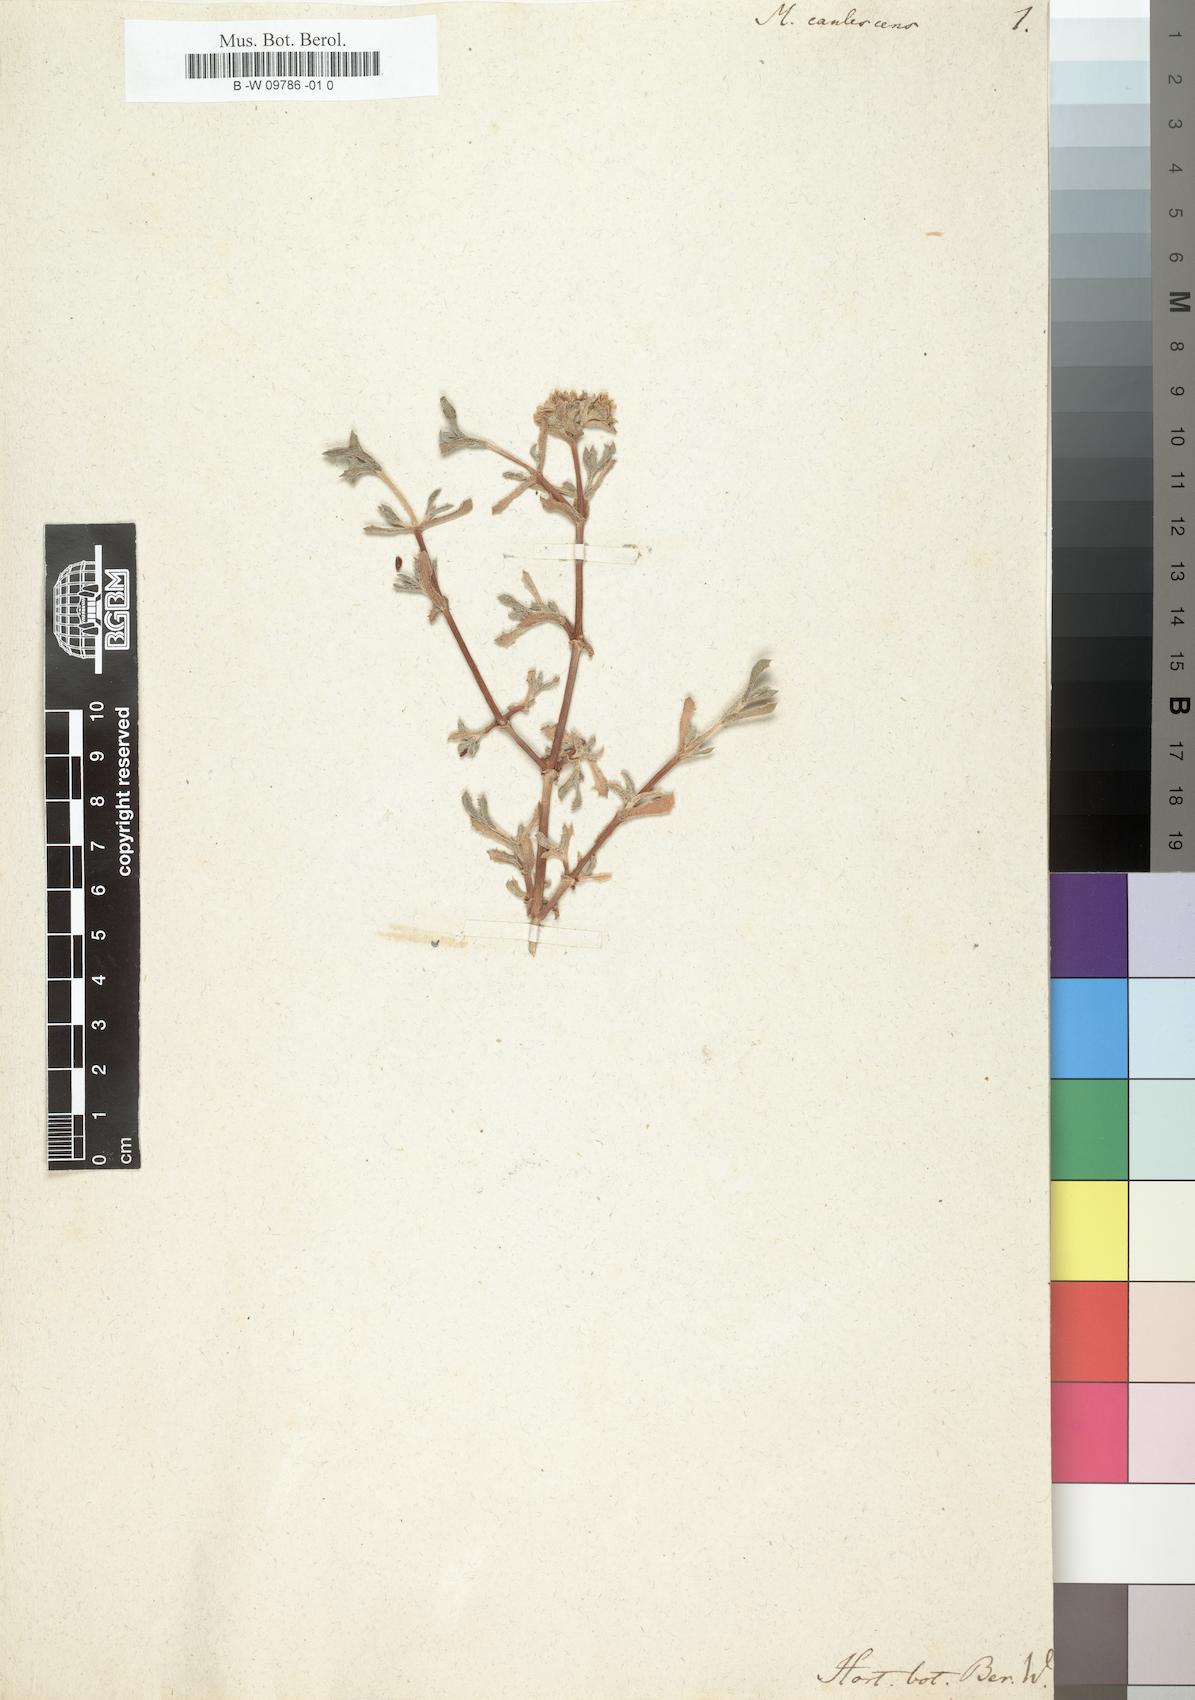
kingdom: Plantae
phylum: Tracheophyta
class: Magnoliopsida
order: Caryophyllales
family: Aizoaceae
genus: Oscularia
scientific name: Oscularia caulescens
